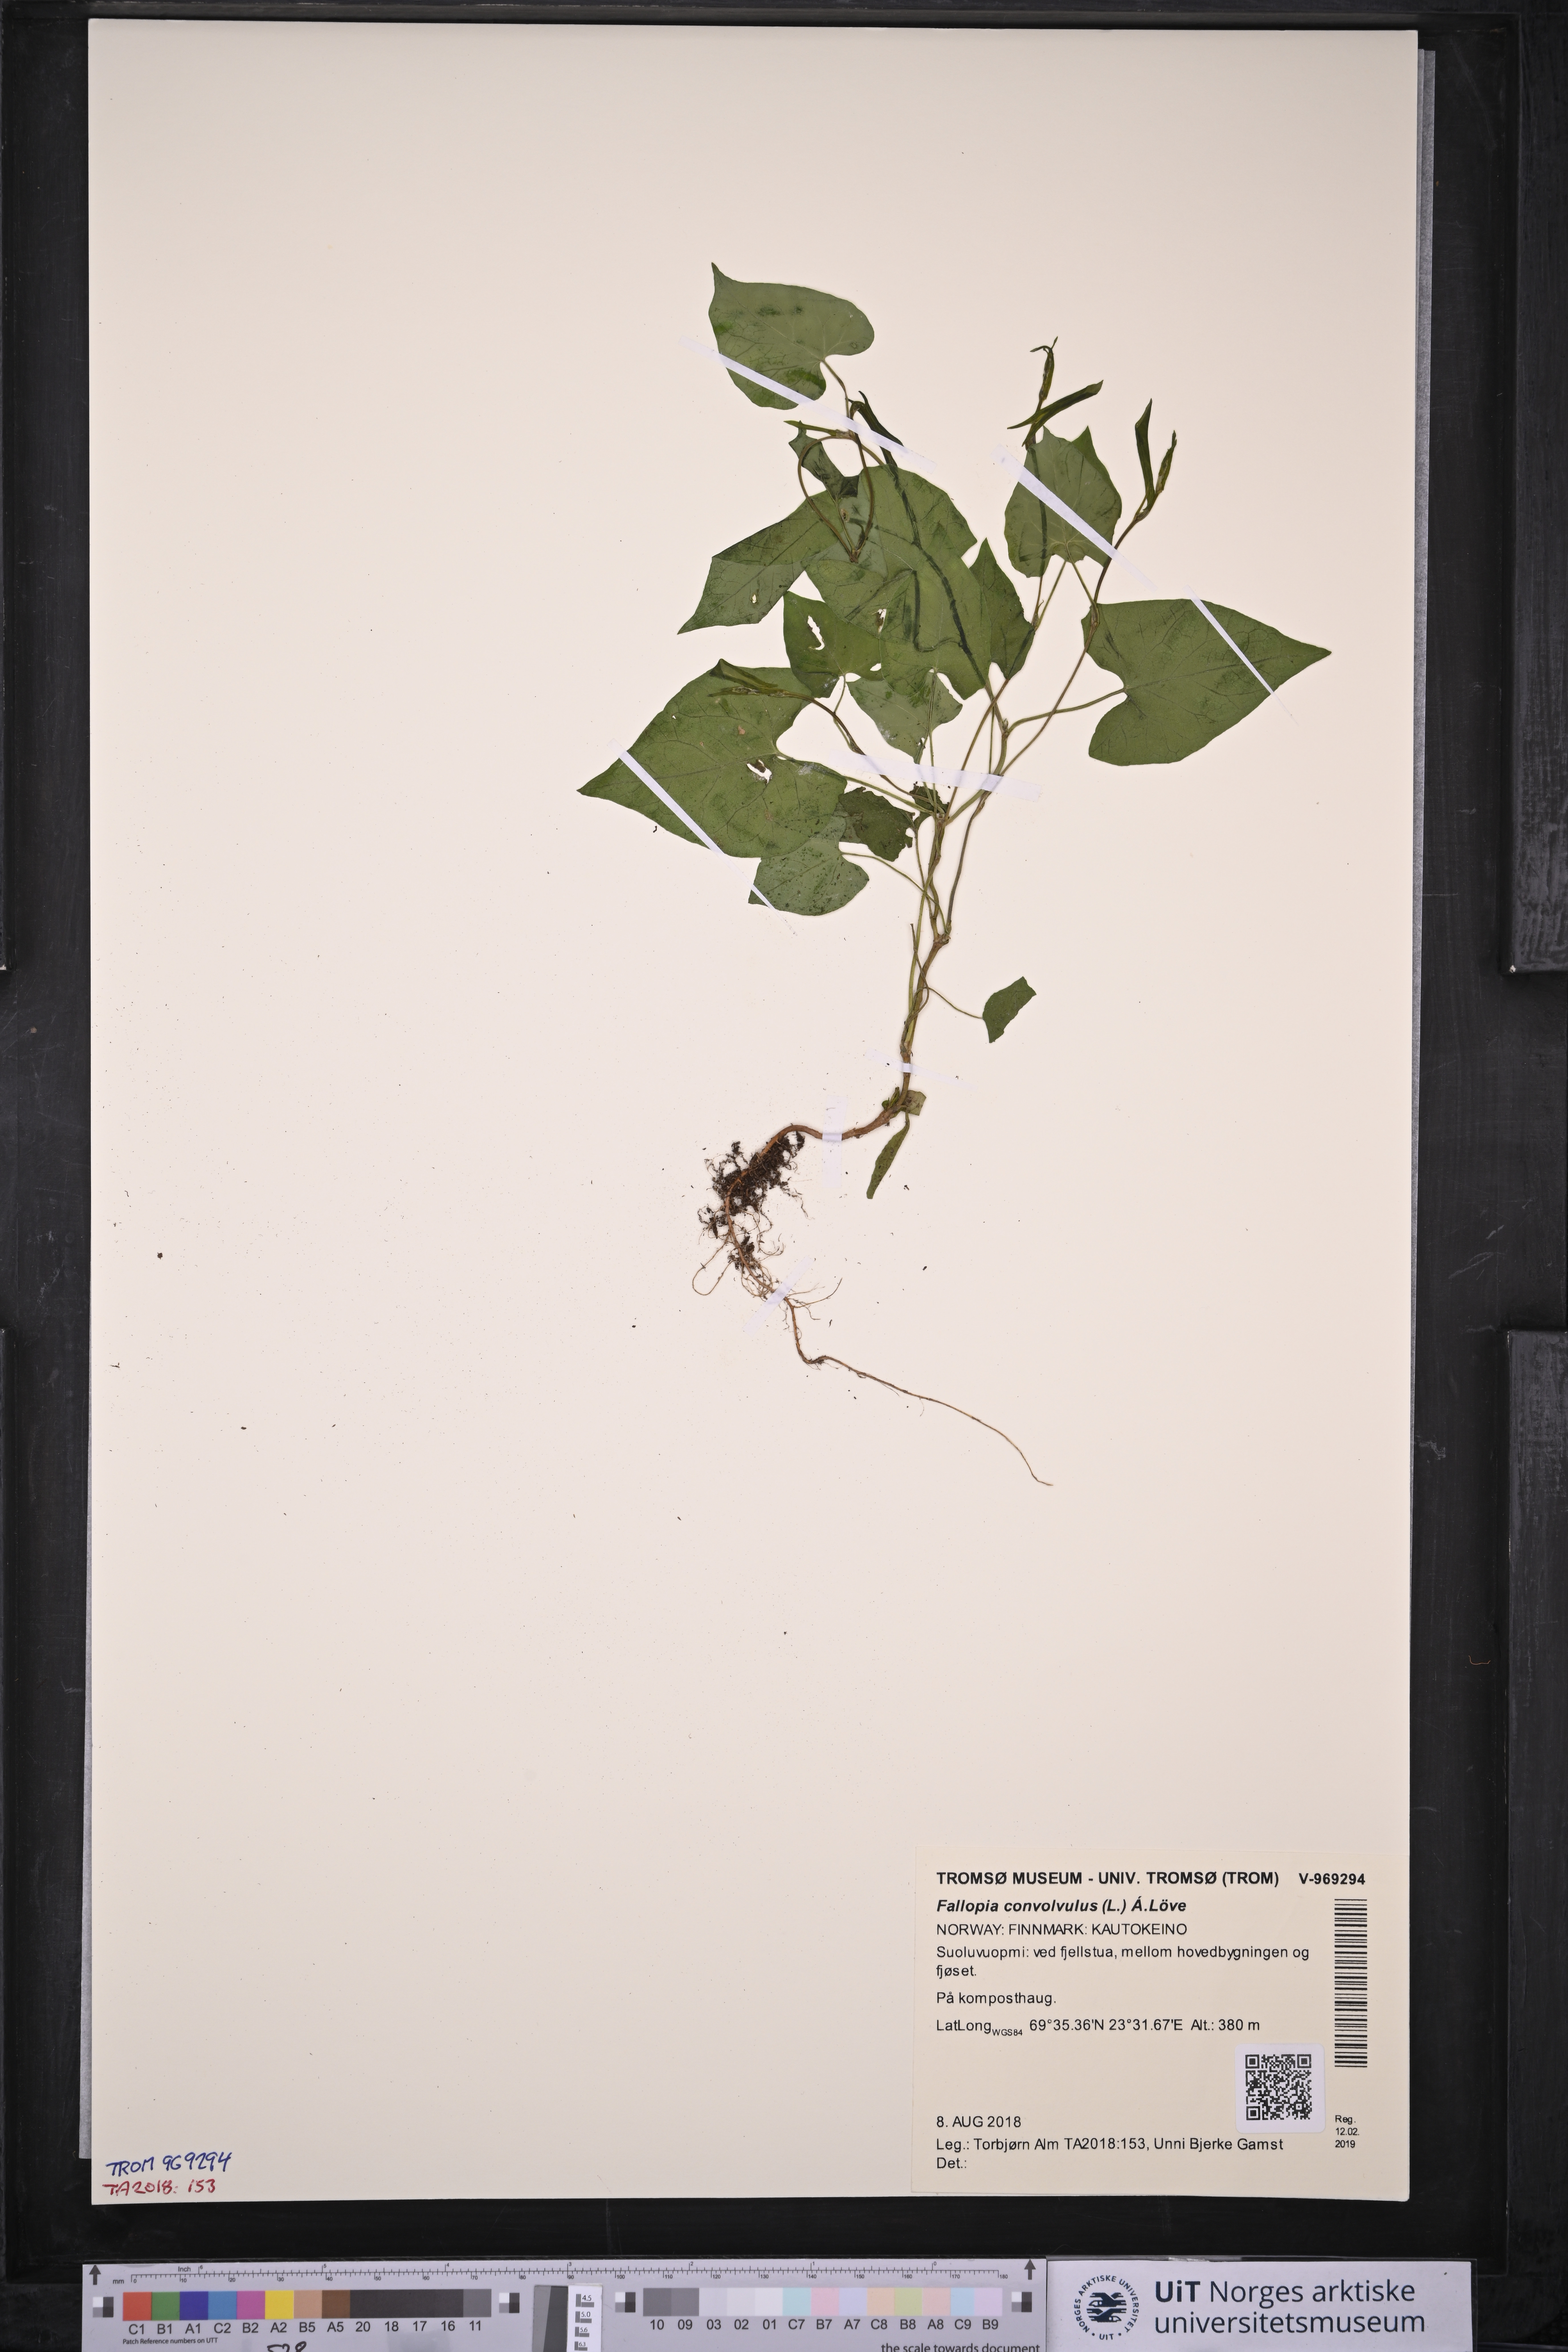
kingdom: Plantae
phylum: Tracheophyta
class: Magnoliopsida
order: Caryophyllales
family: Polygonaceae
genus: Fallopia
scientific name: Fallopia convolvulus
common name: Black bindweed
